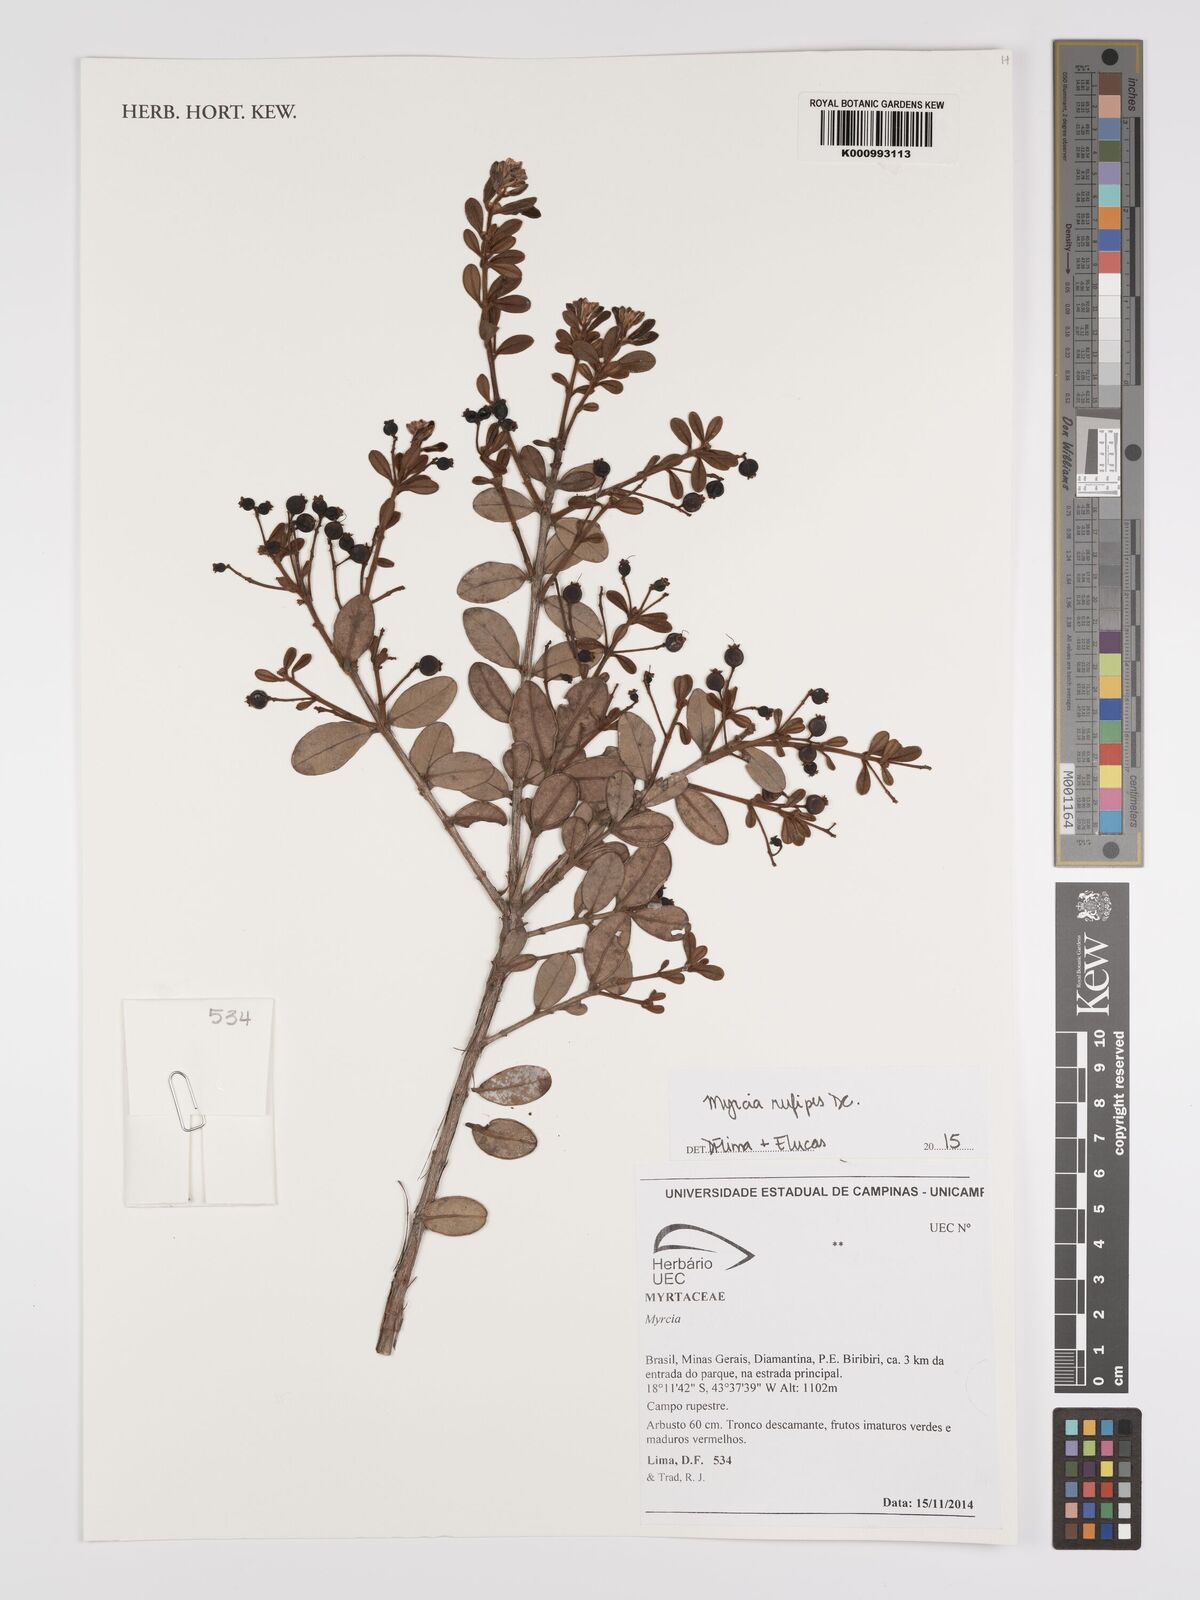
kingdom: Plantae
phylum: Tracheophyta
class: Magnoliopsida
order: Myrtales
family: Myrtaceae
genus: Myrcia
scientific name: Myrcia rufipes
